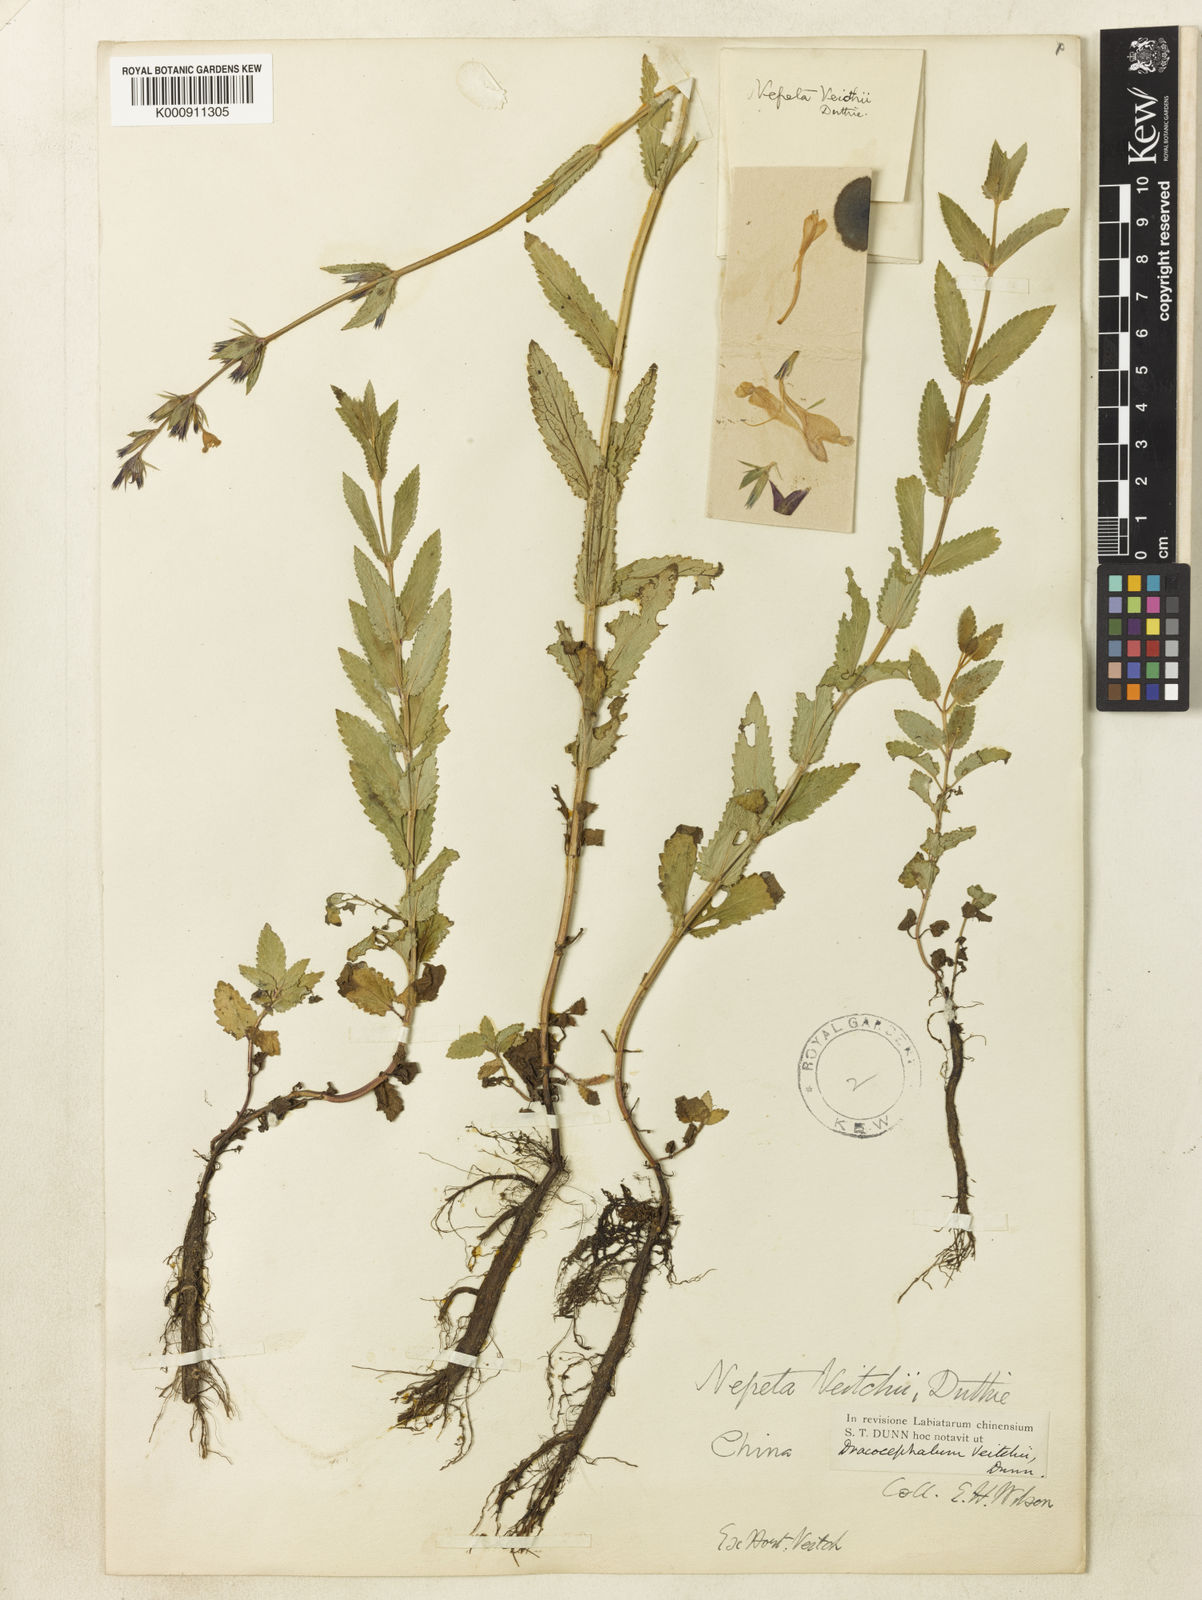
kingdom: Plantae
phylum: Tracheophyta
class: Magnoliopsida
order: Lamiales
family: Lamiaceae
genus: Nepeta
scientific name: Nepeta veitchii
